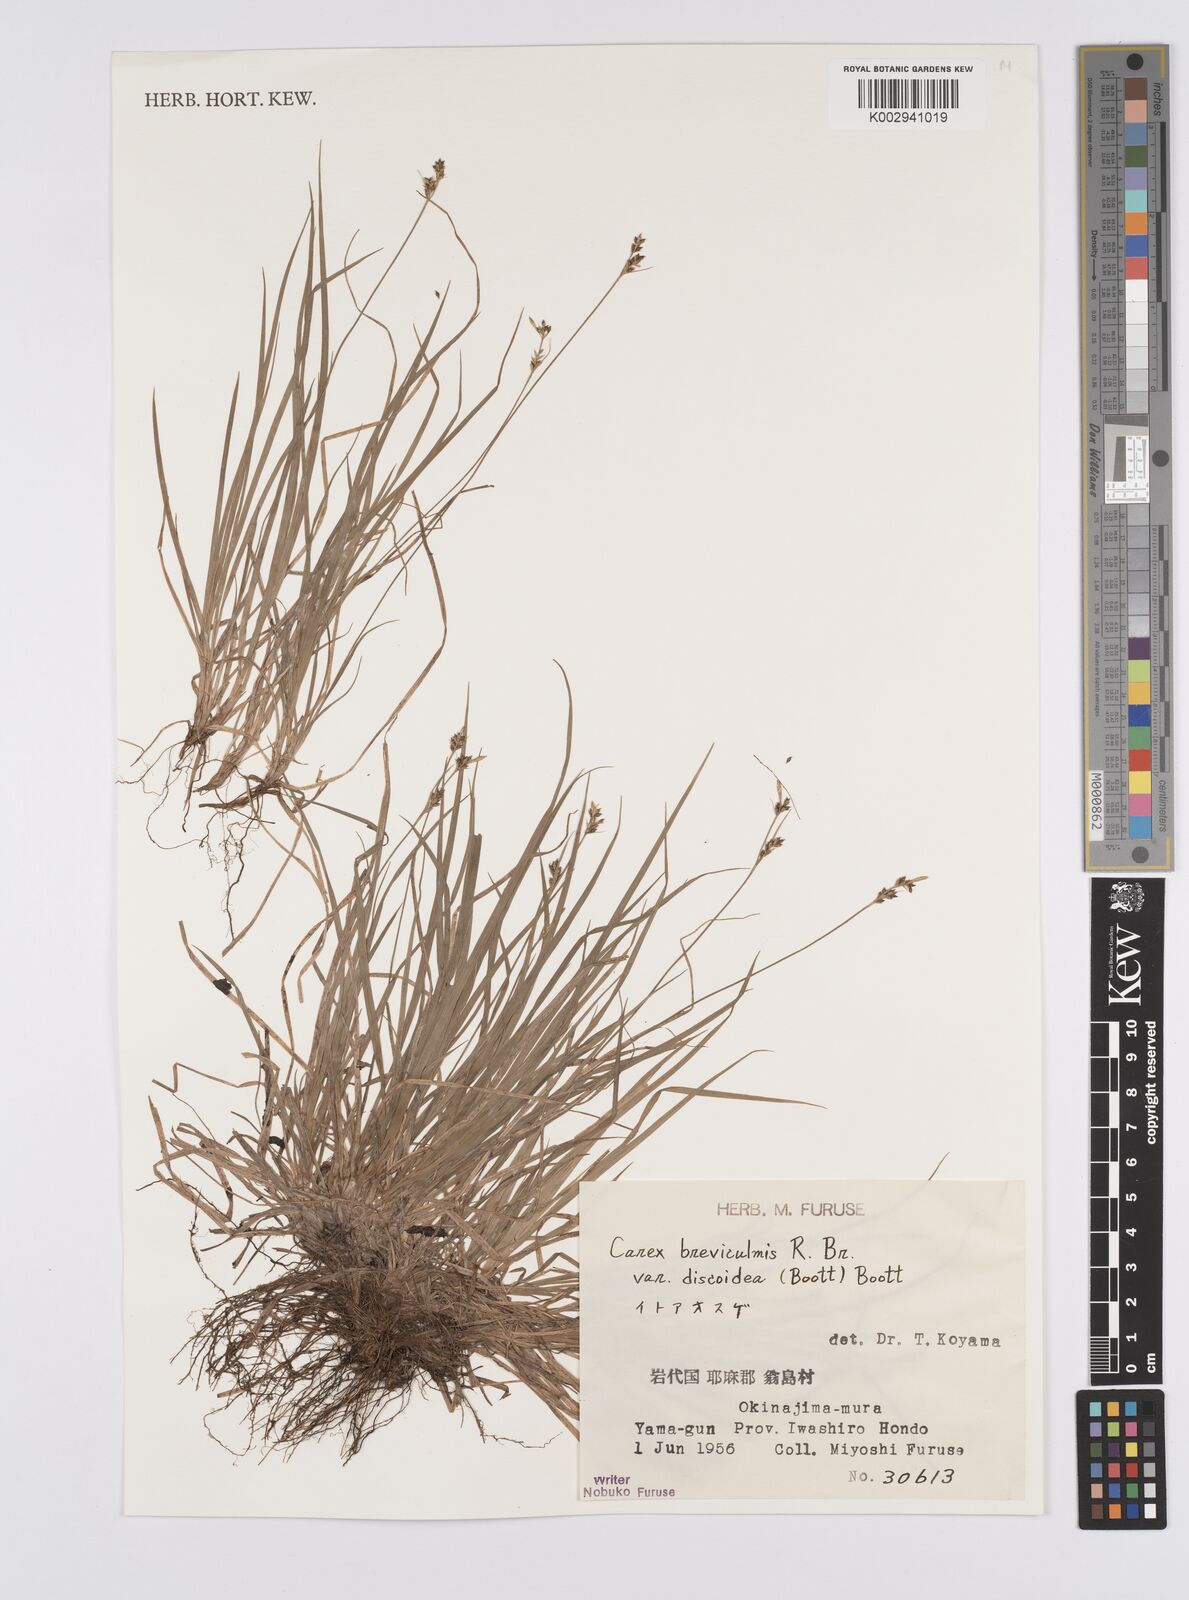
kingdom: Plantae
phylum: Tracheophyta
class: Liliopsida
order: Poales
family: Cyperaceae
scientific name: Cyperaceae
